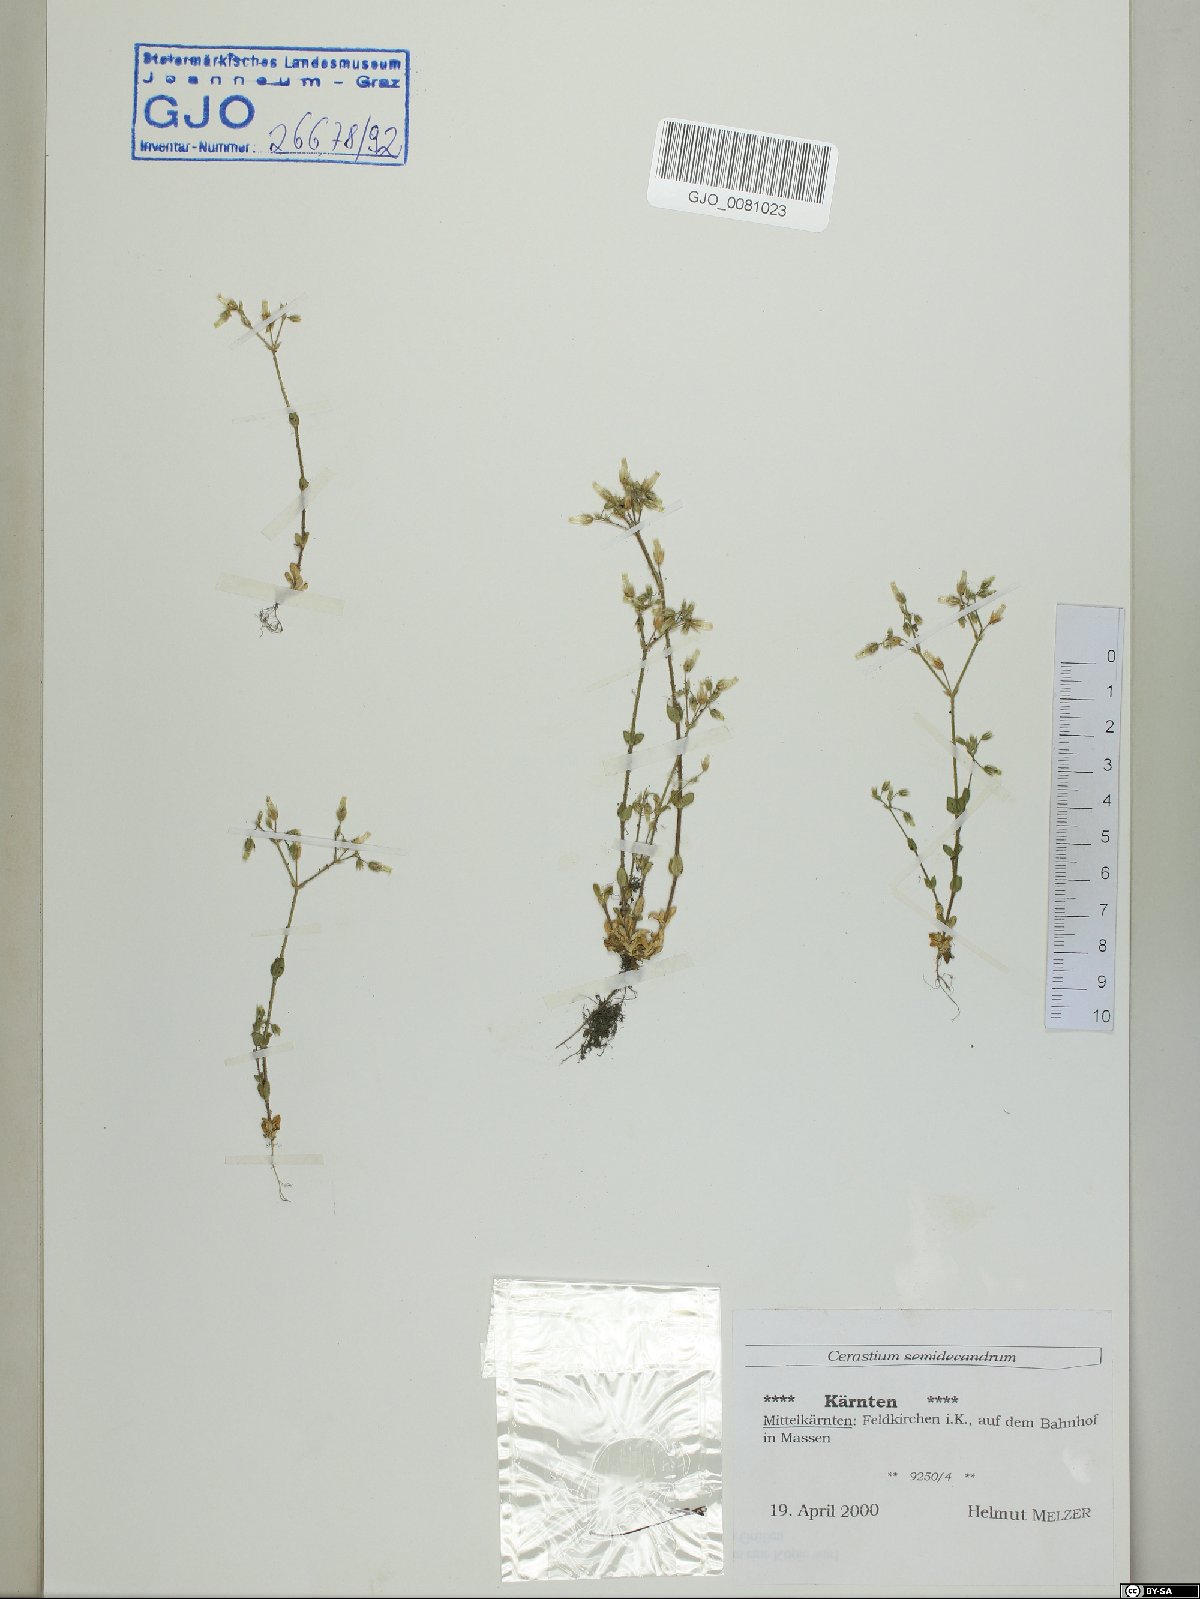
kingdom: Plantae
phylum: Tracheophyta
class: Magnoliopsida
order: Caryophyllales
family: Caryophyllaceae
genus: Cerastium
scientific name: Cerastium semidecandrum
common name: Little mouse-ear
